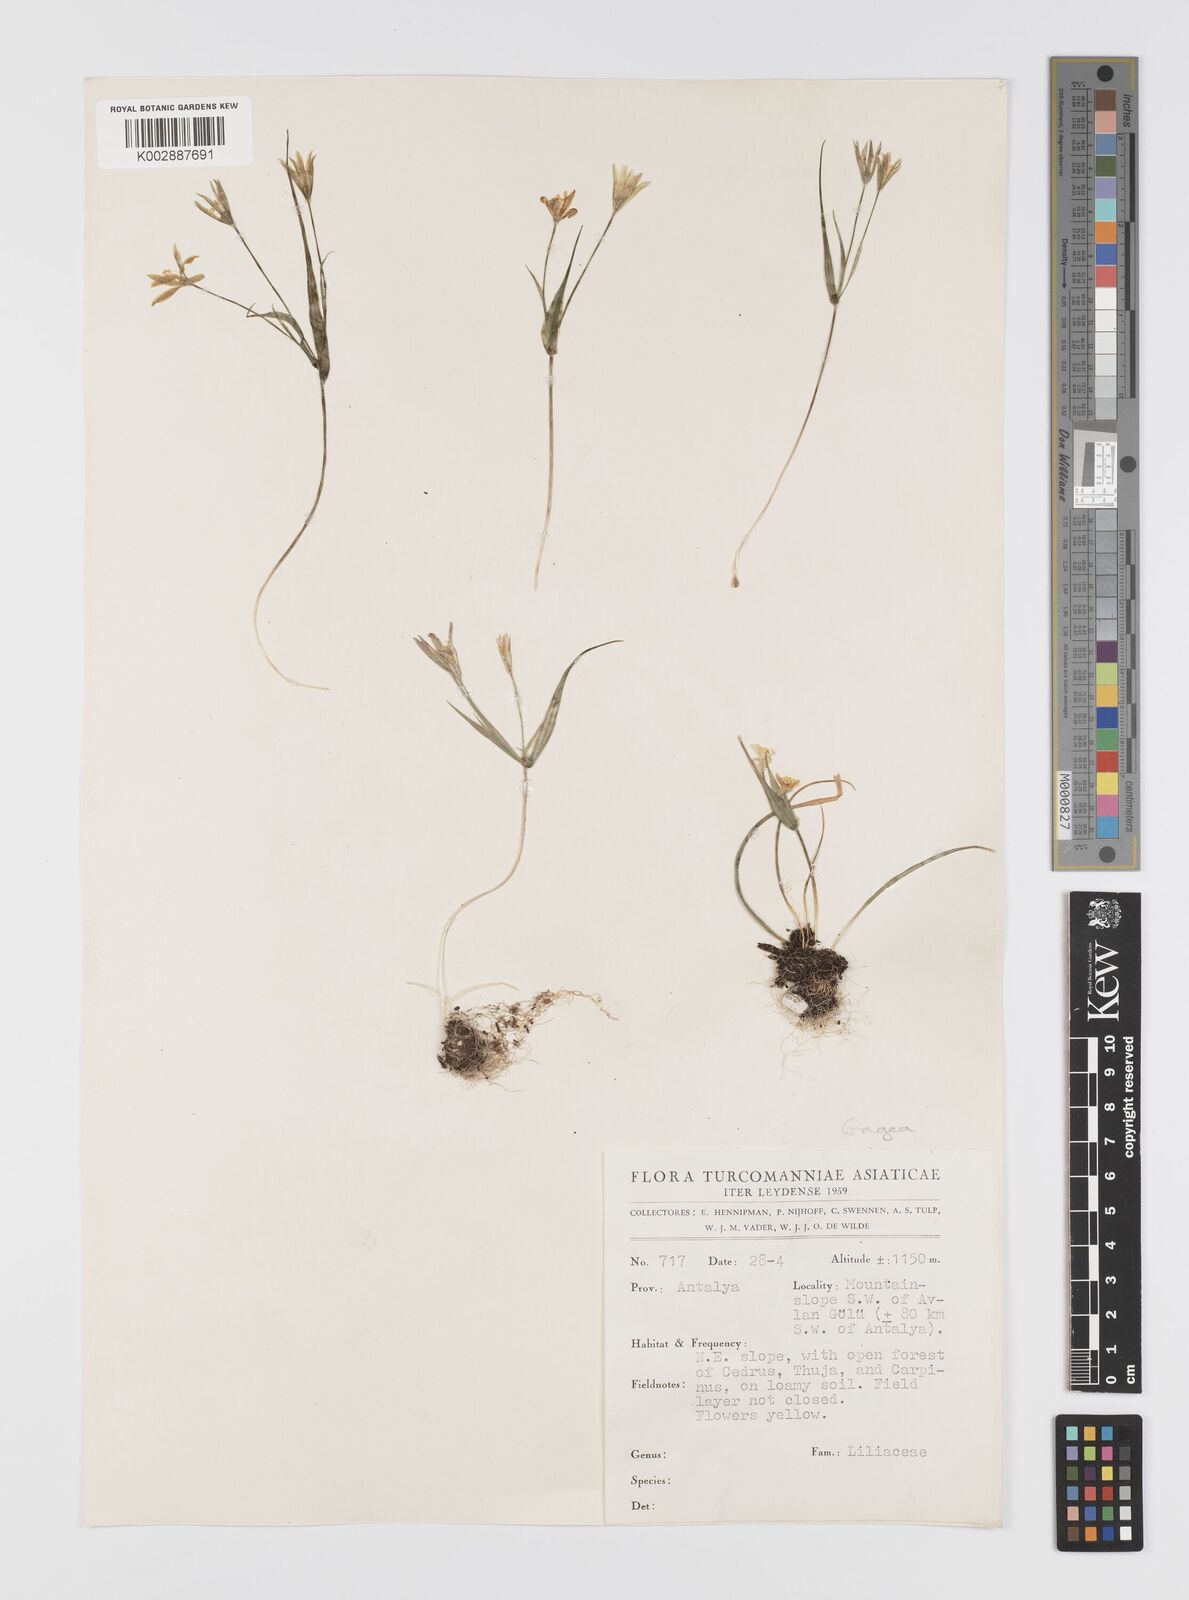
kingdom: Plantae
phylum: Tracheophyta
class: Liliopsida
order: Liliales
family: Liliaceae
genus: Gagea
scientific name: Gagea dubia
